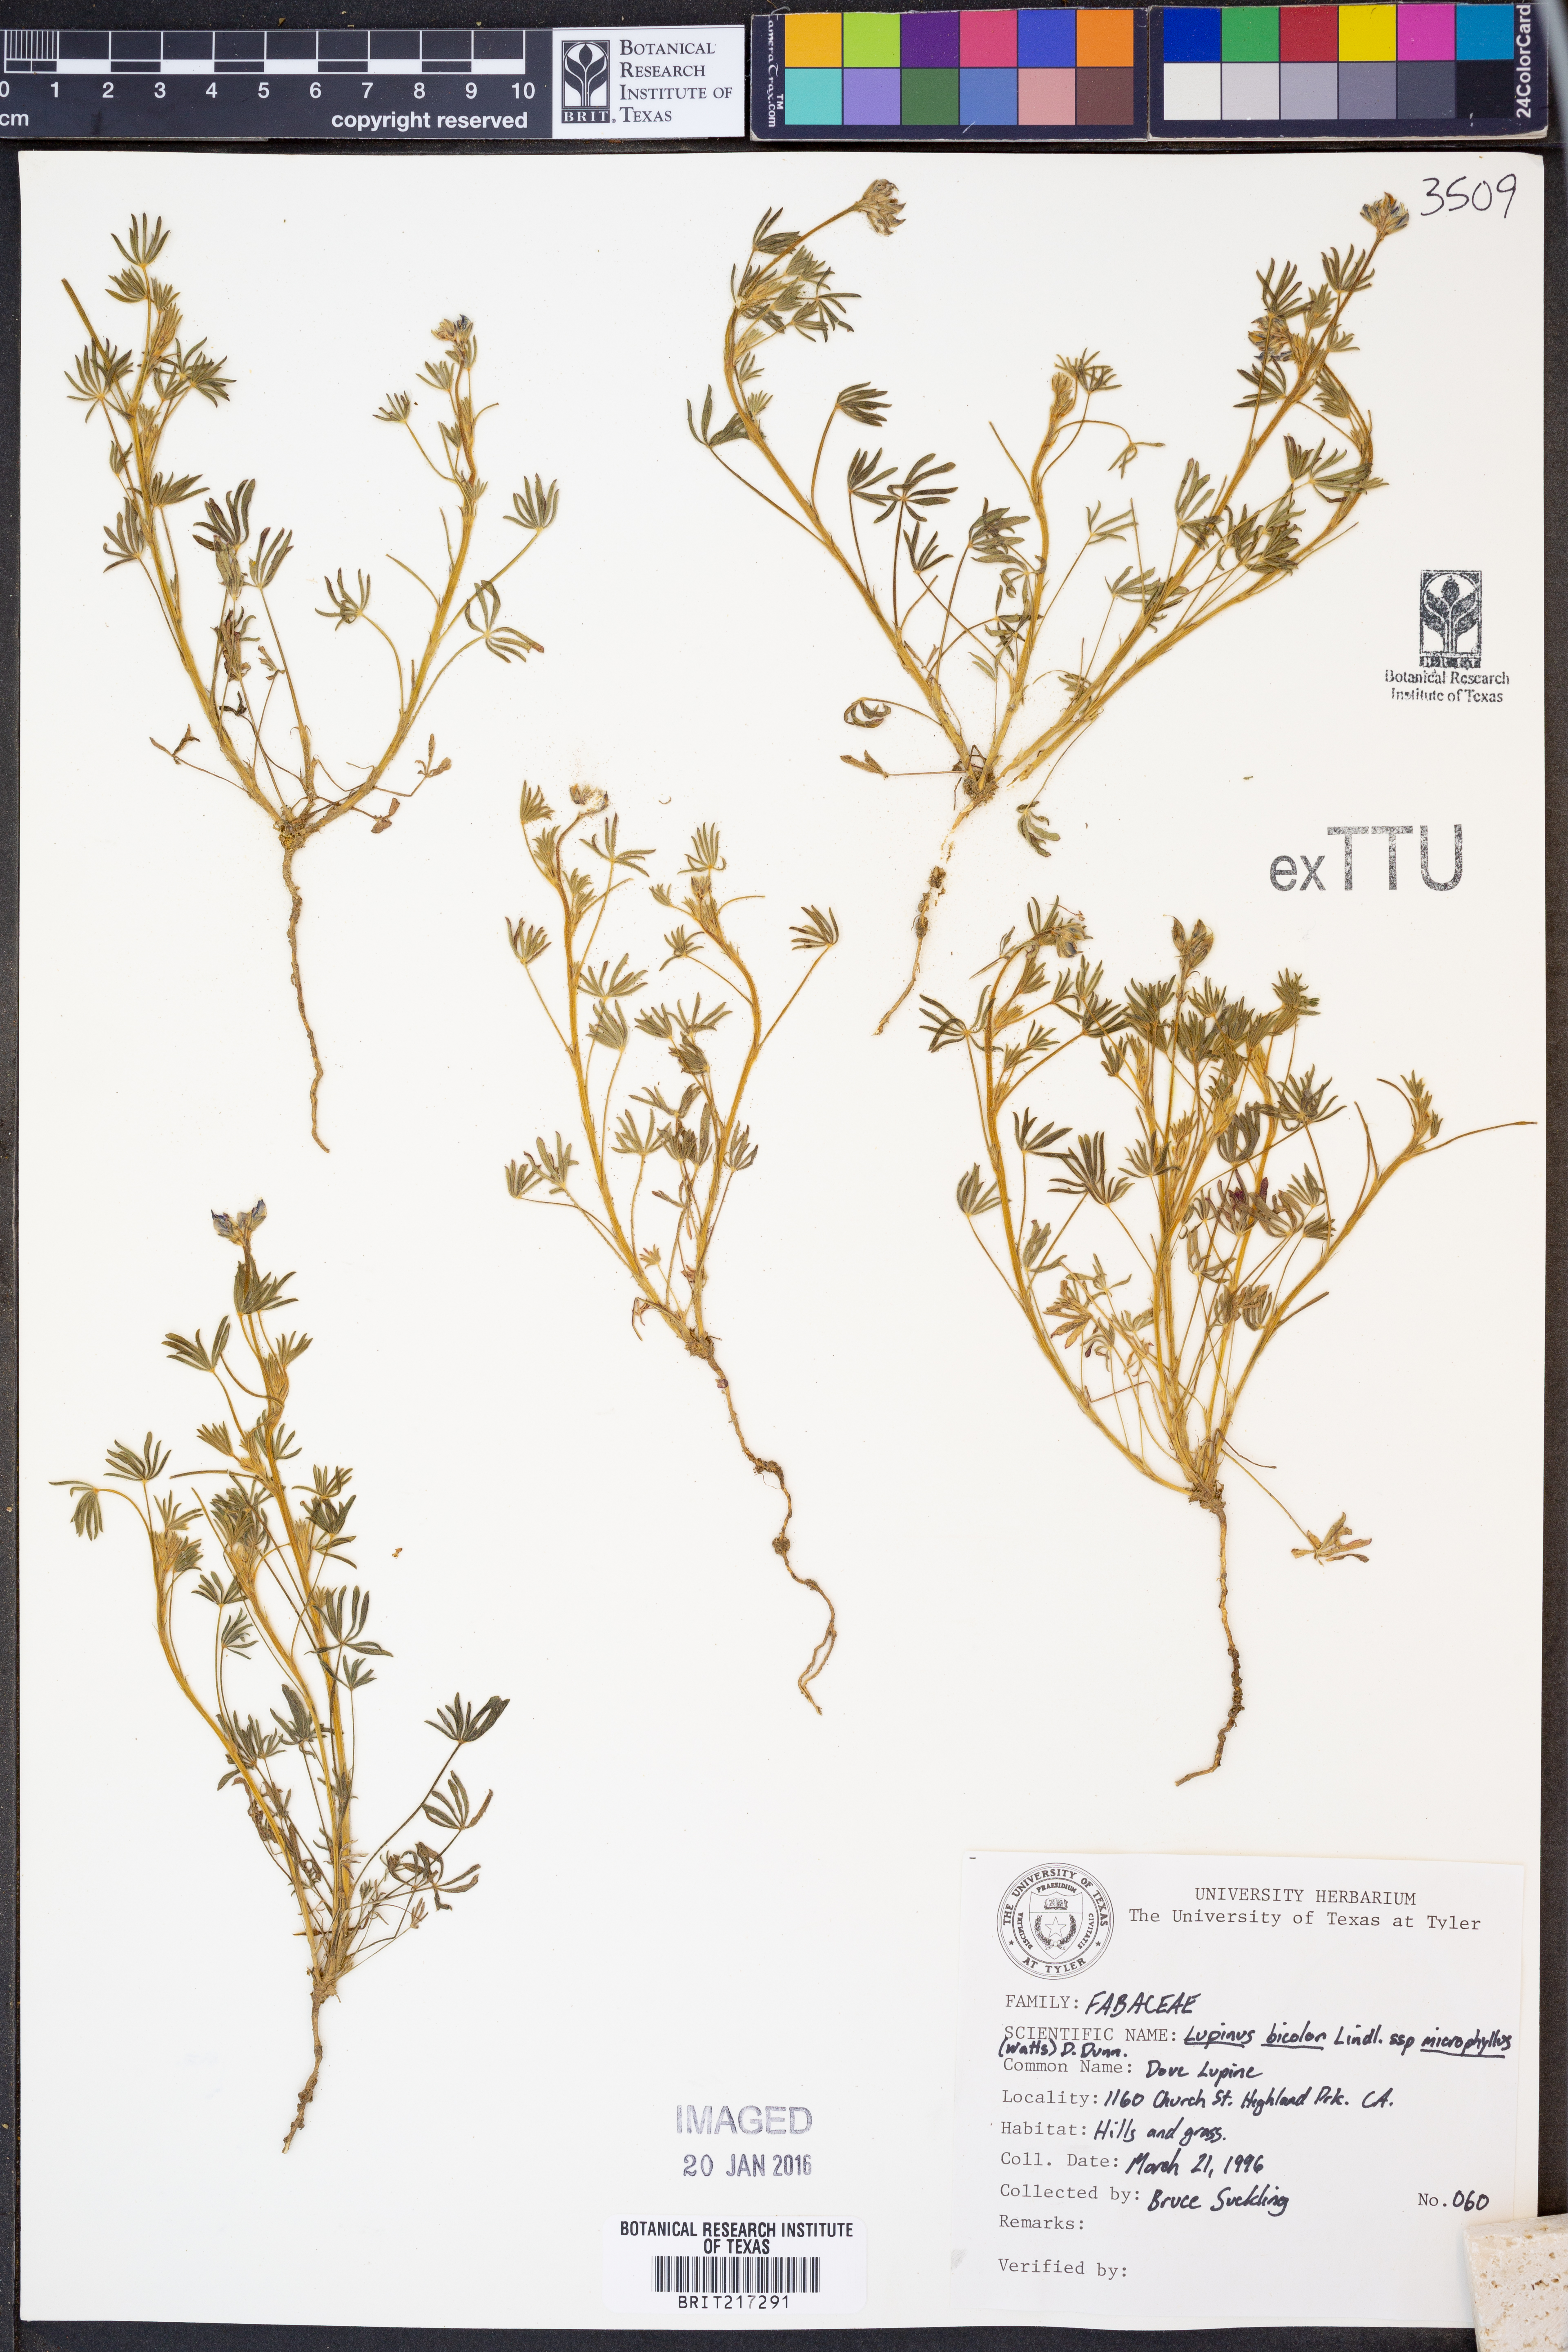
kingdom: Plantae
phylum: Tracheophyta
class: Magnoliopsida
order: Fabales
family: Fabaceae
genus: Lupinus
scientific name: Lupinus bicolor
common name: Miniature lupine
